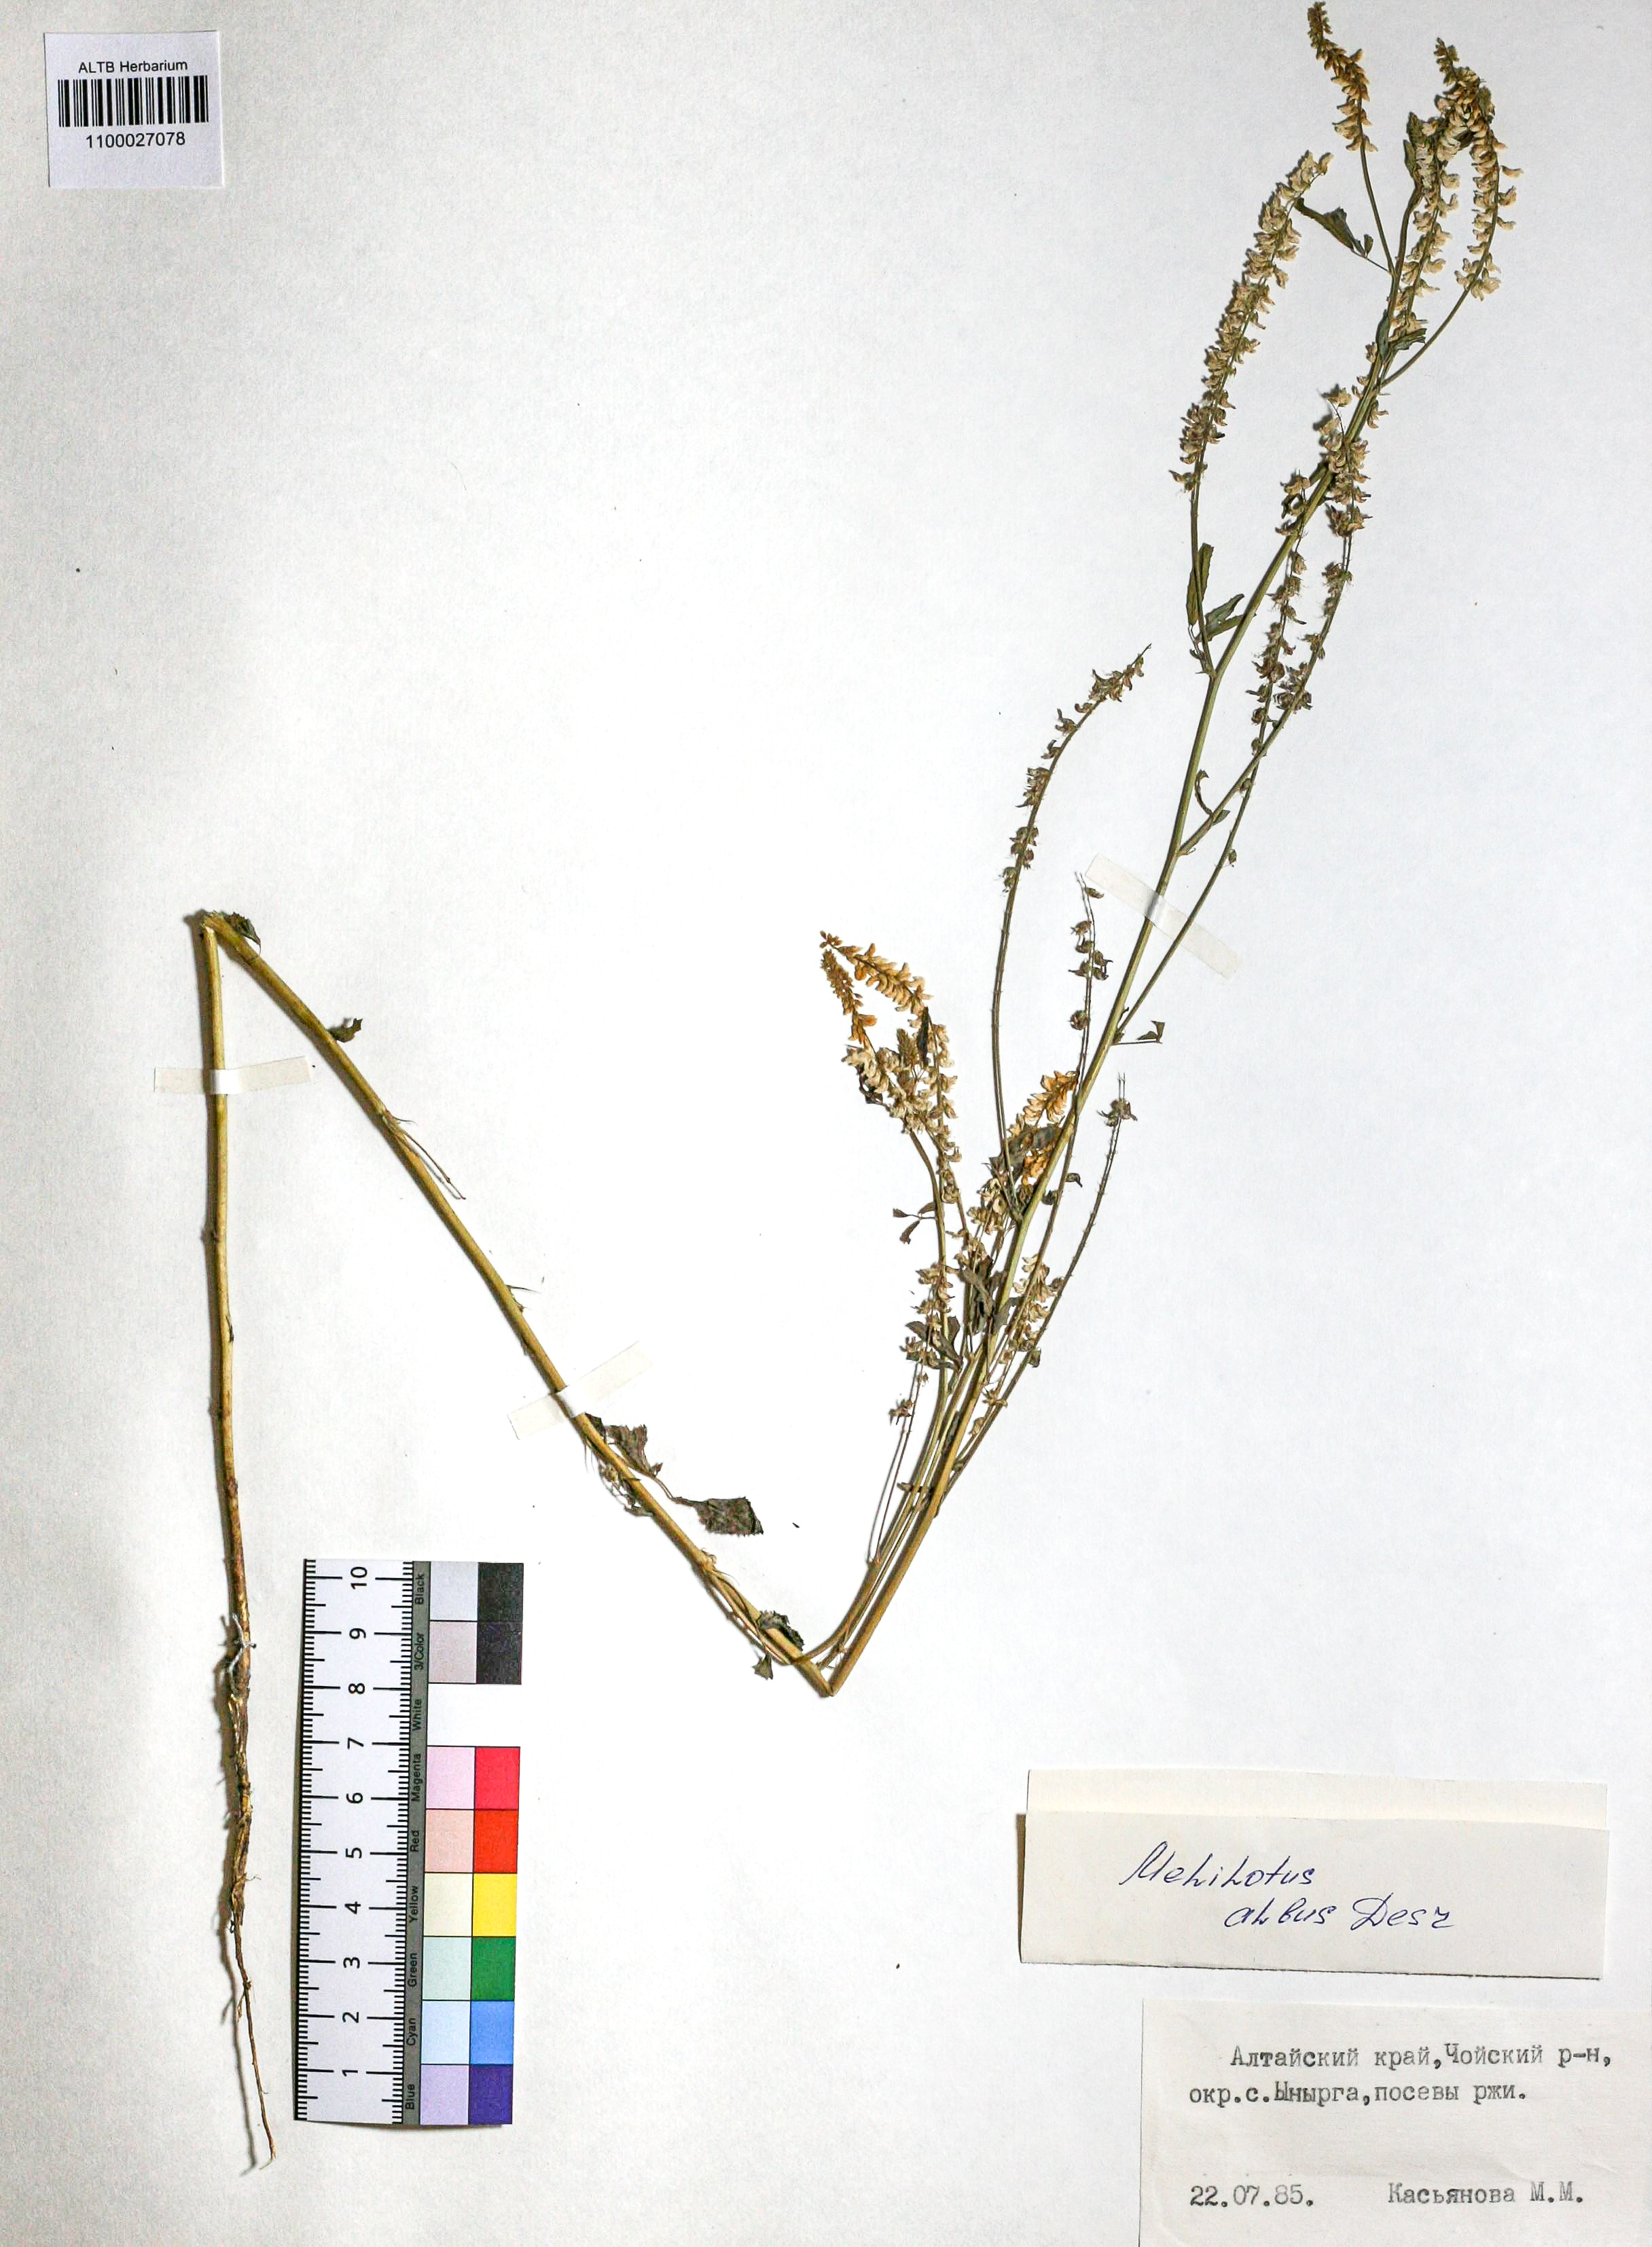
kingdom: Plantae
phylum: Tracheophyta
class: Magnoliopsida
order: Fabales
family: Fabaceae
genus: Melilotus
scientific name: Melilotus albus
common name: White melilot
